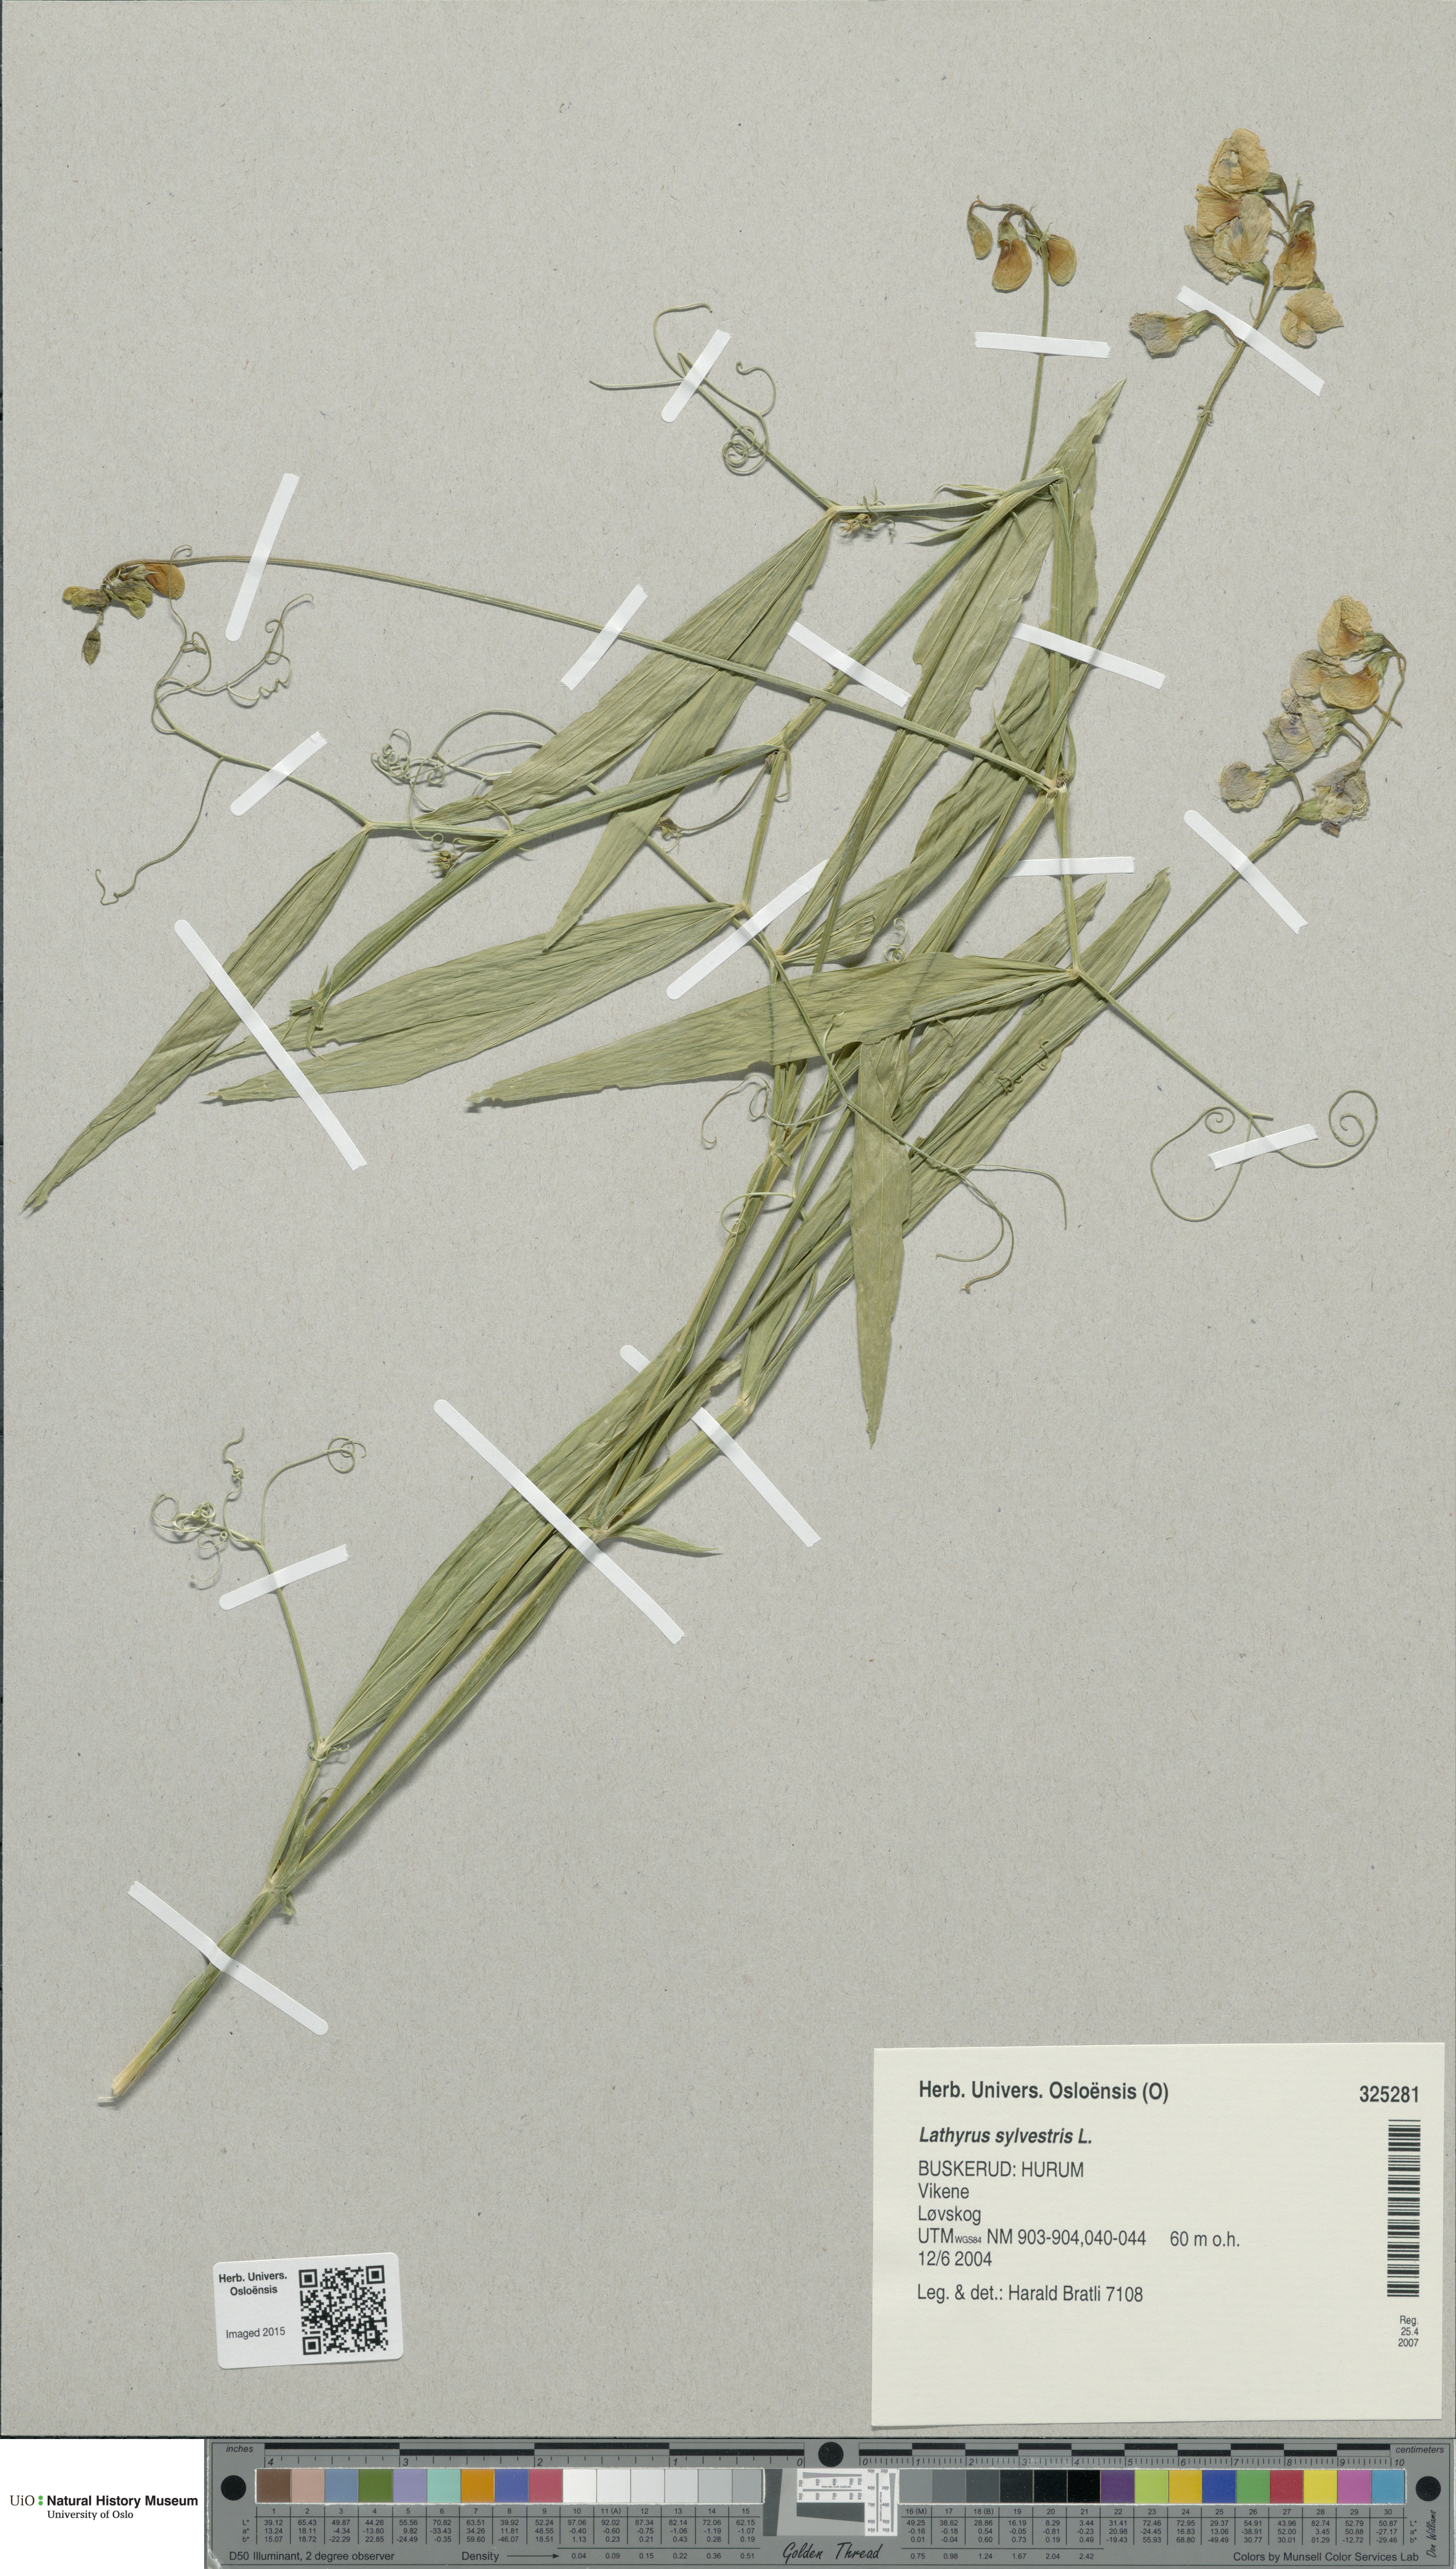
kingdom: Plantae
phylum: Tracheophyta
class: Magnoliopsida
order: Fabales
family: Fabaceae
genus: Lathyrus
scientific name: Lathyrus sylvestris
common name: Flat pea
